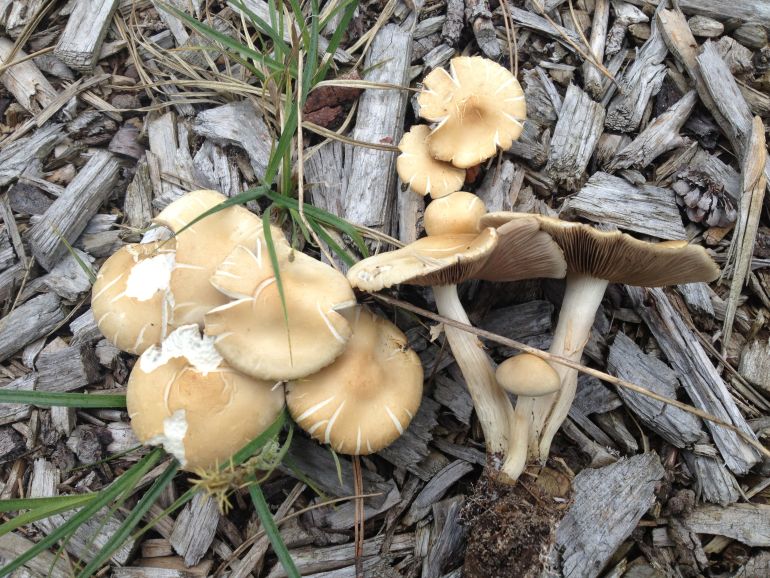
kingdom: Fungi
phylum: Basidiomycota
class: Agaricomycetes
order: Agaricales
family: Strophariaceae
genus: Agrocybe
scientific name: Agrocybe praecox
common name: tidlig agerhat
